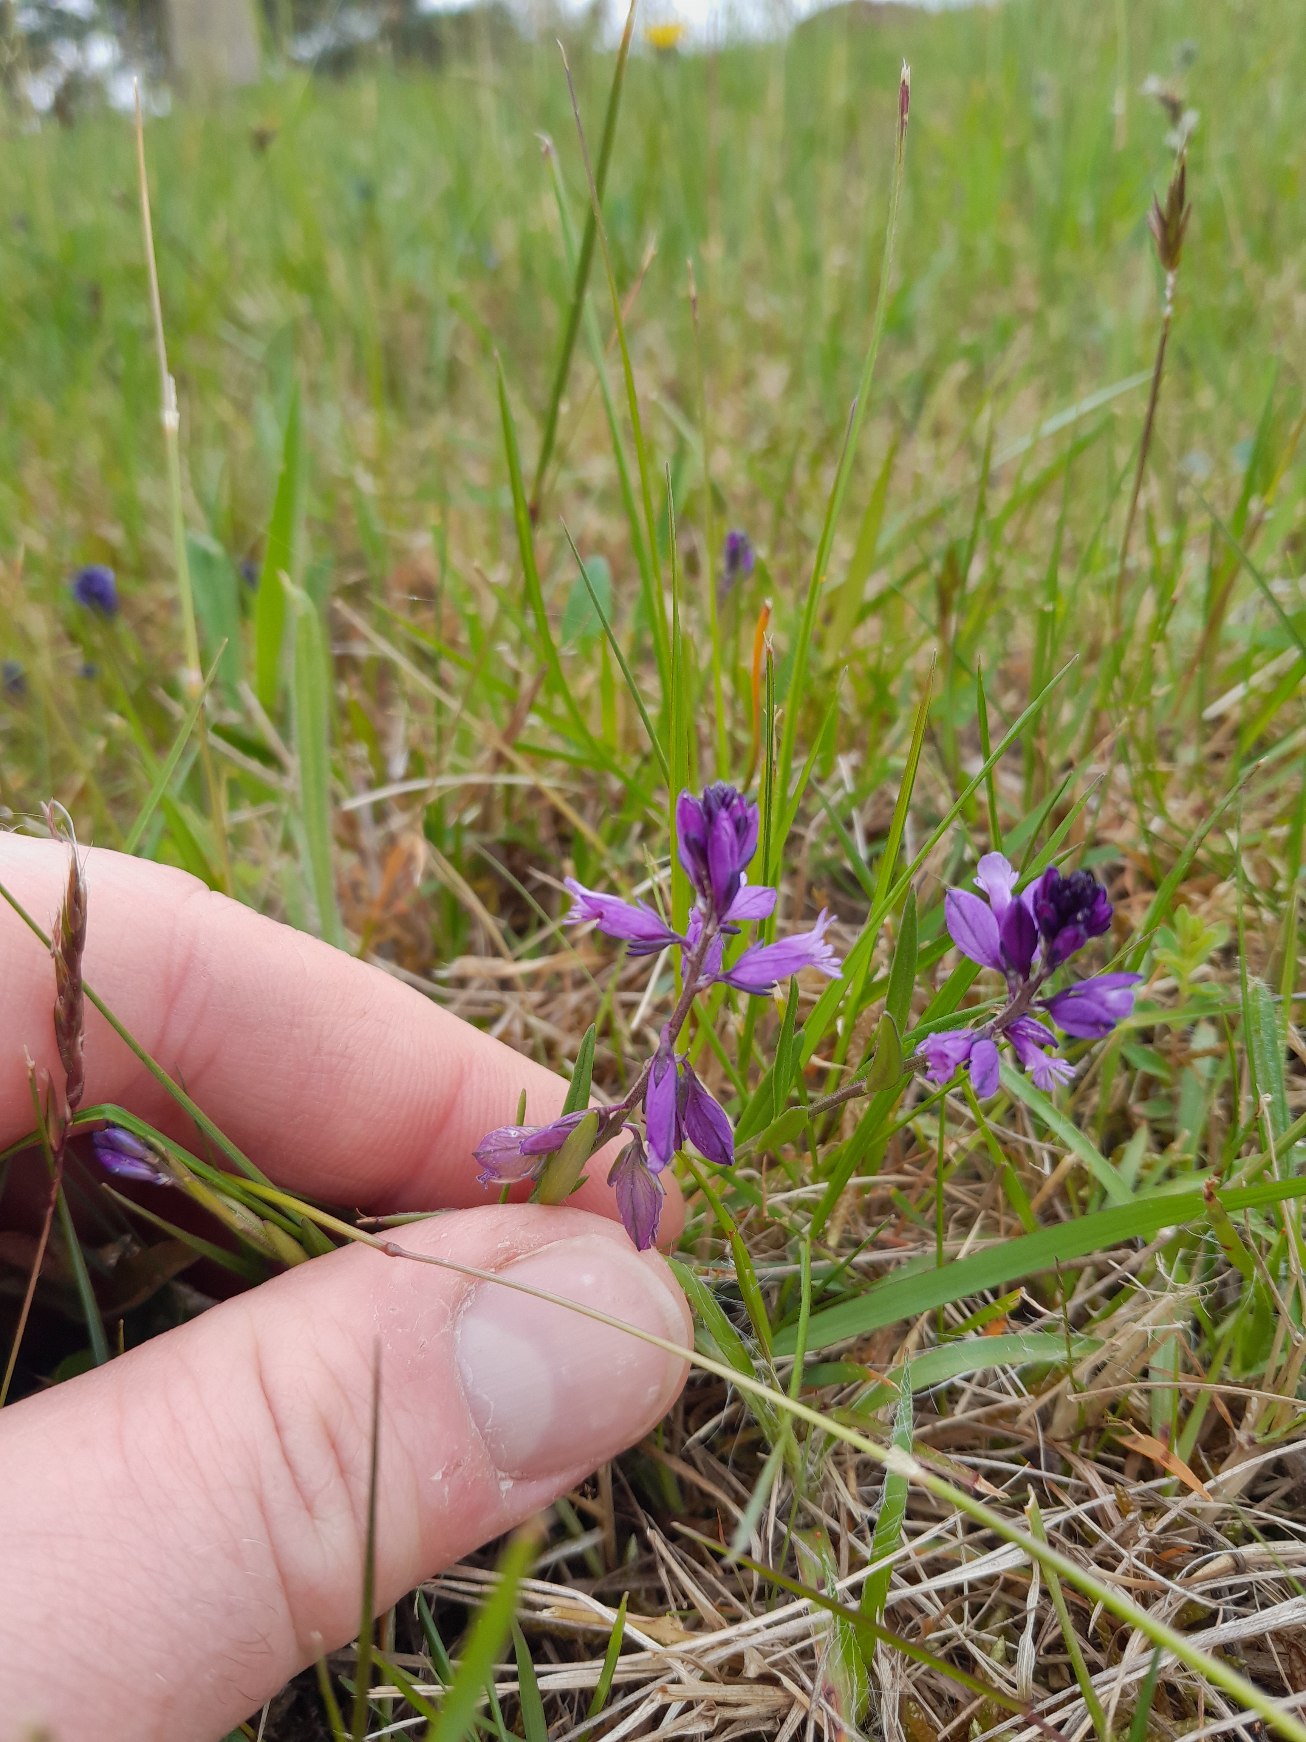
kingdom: Plantae
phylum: Tracheophyta
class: Magnoliopsida
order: Fabales
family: Polygalaceae
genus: Polygala
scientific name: Polygala vulgaris
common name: Almindelig mælkeurt
